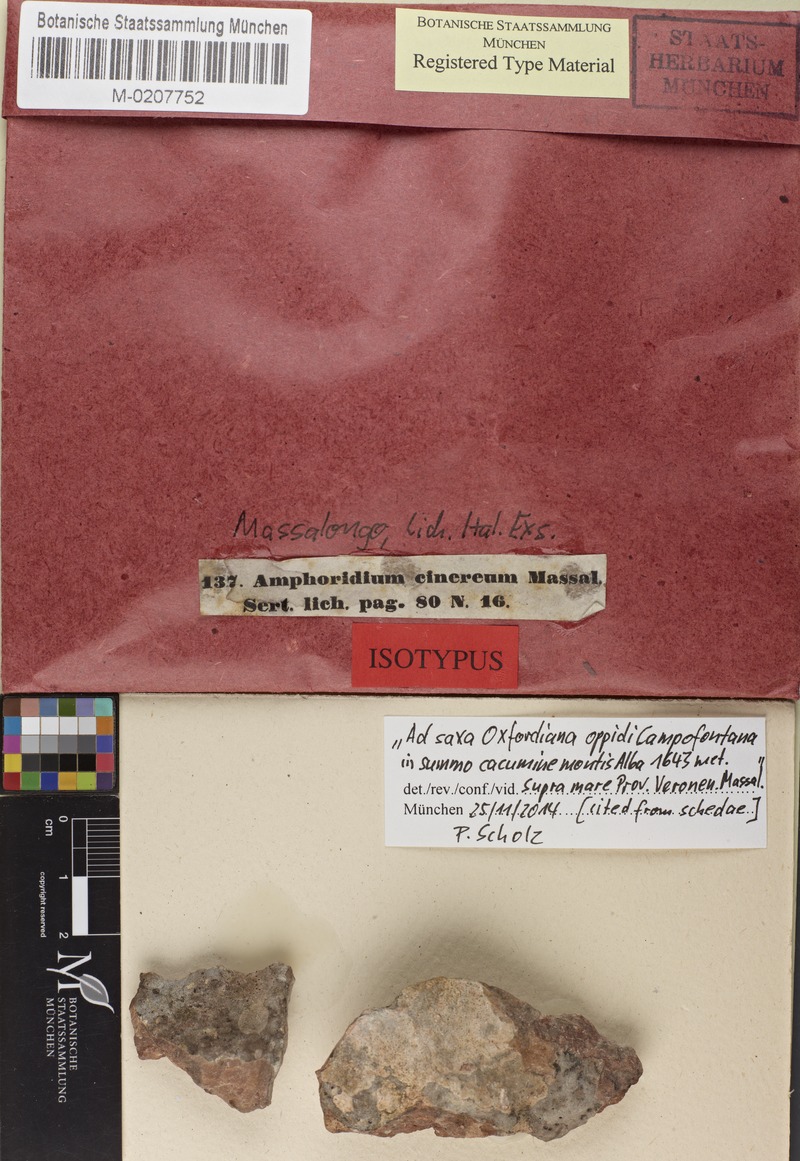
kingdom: Fungi
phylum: Ascomycota
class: Eurotiomycetes
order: Verrucariales
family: Verrucariaceae
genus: Polyblastia
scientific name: Polyblastia cinerea
